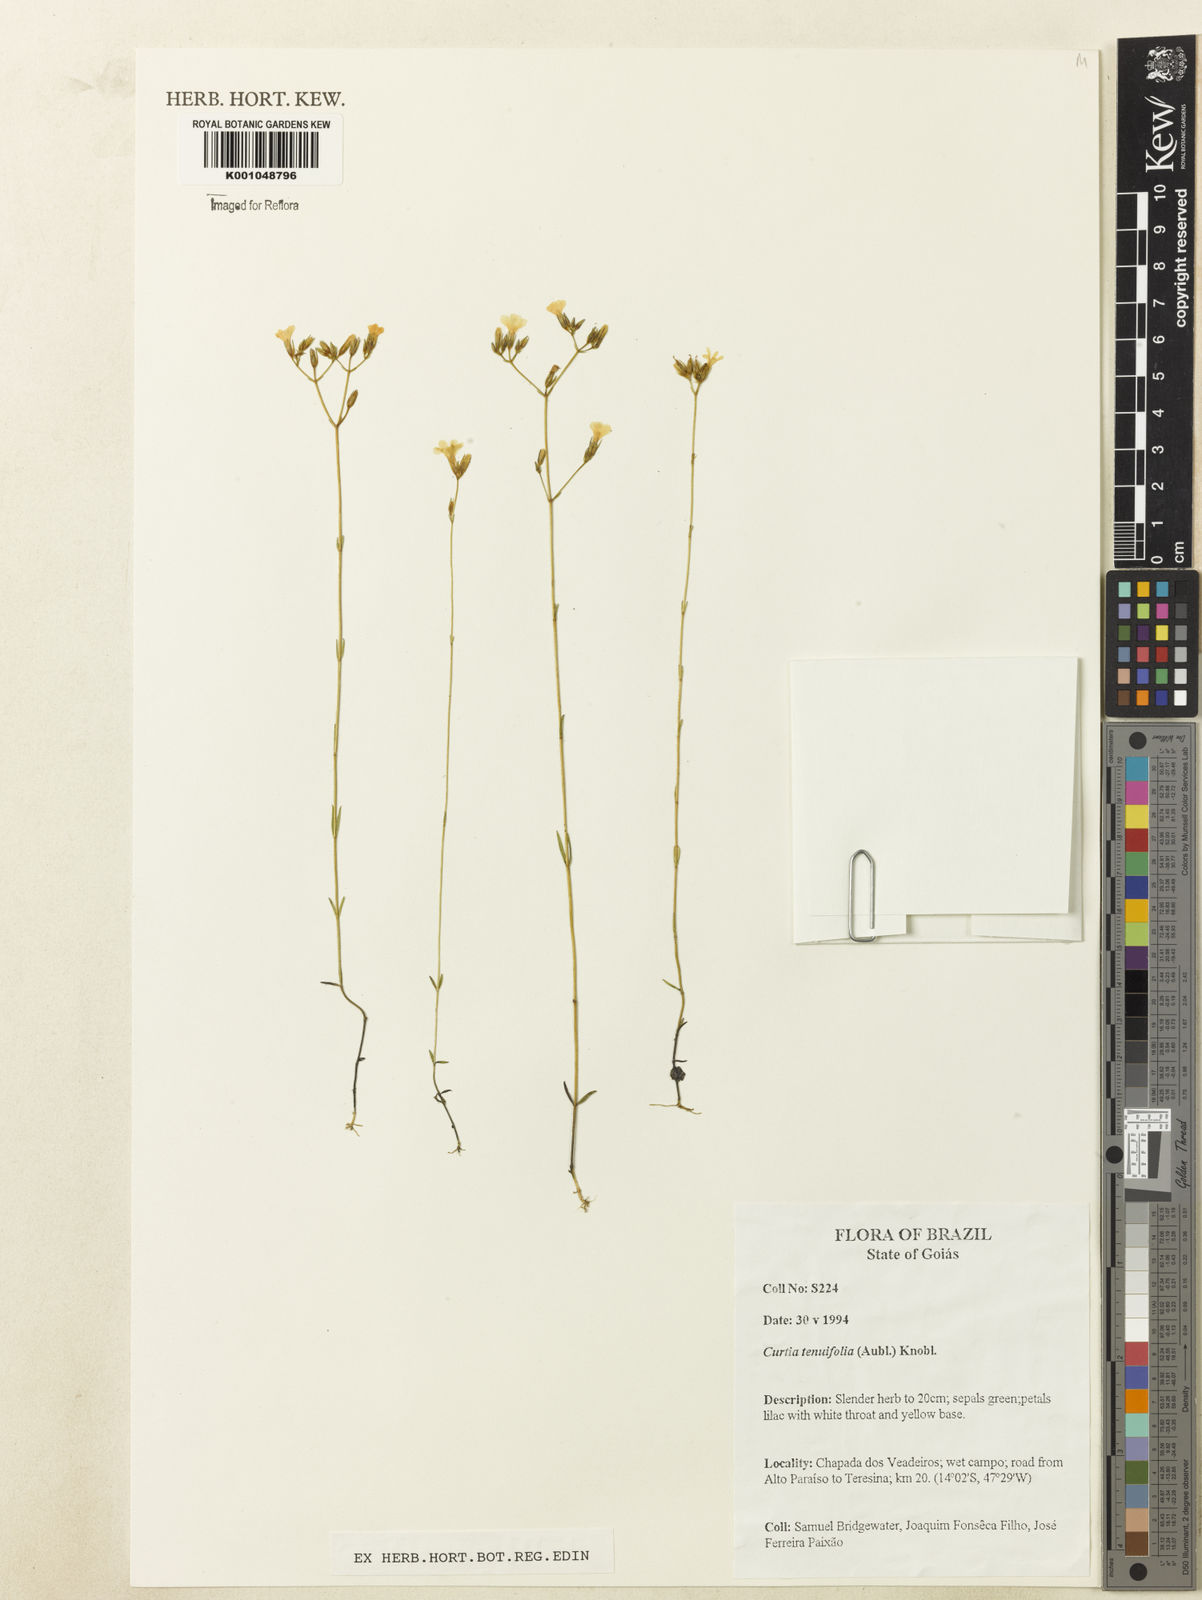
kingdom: Plantae
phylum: Tracheophyta
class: Magnoliopsida
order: Gentianales
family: Gentianaceae
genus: Curtia
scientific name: Curtia tenuifolia
